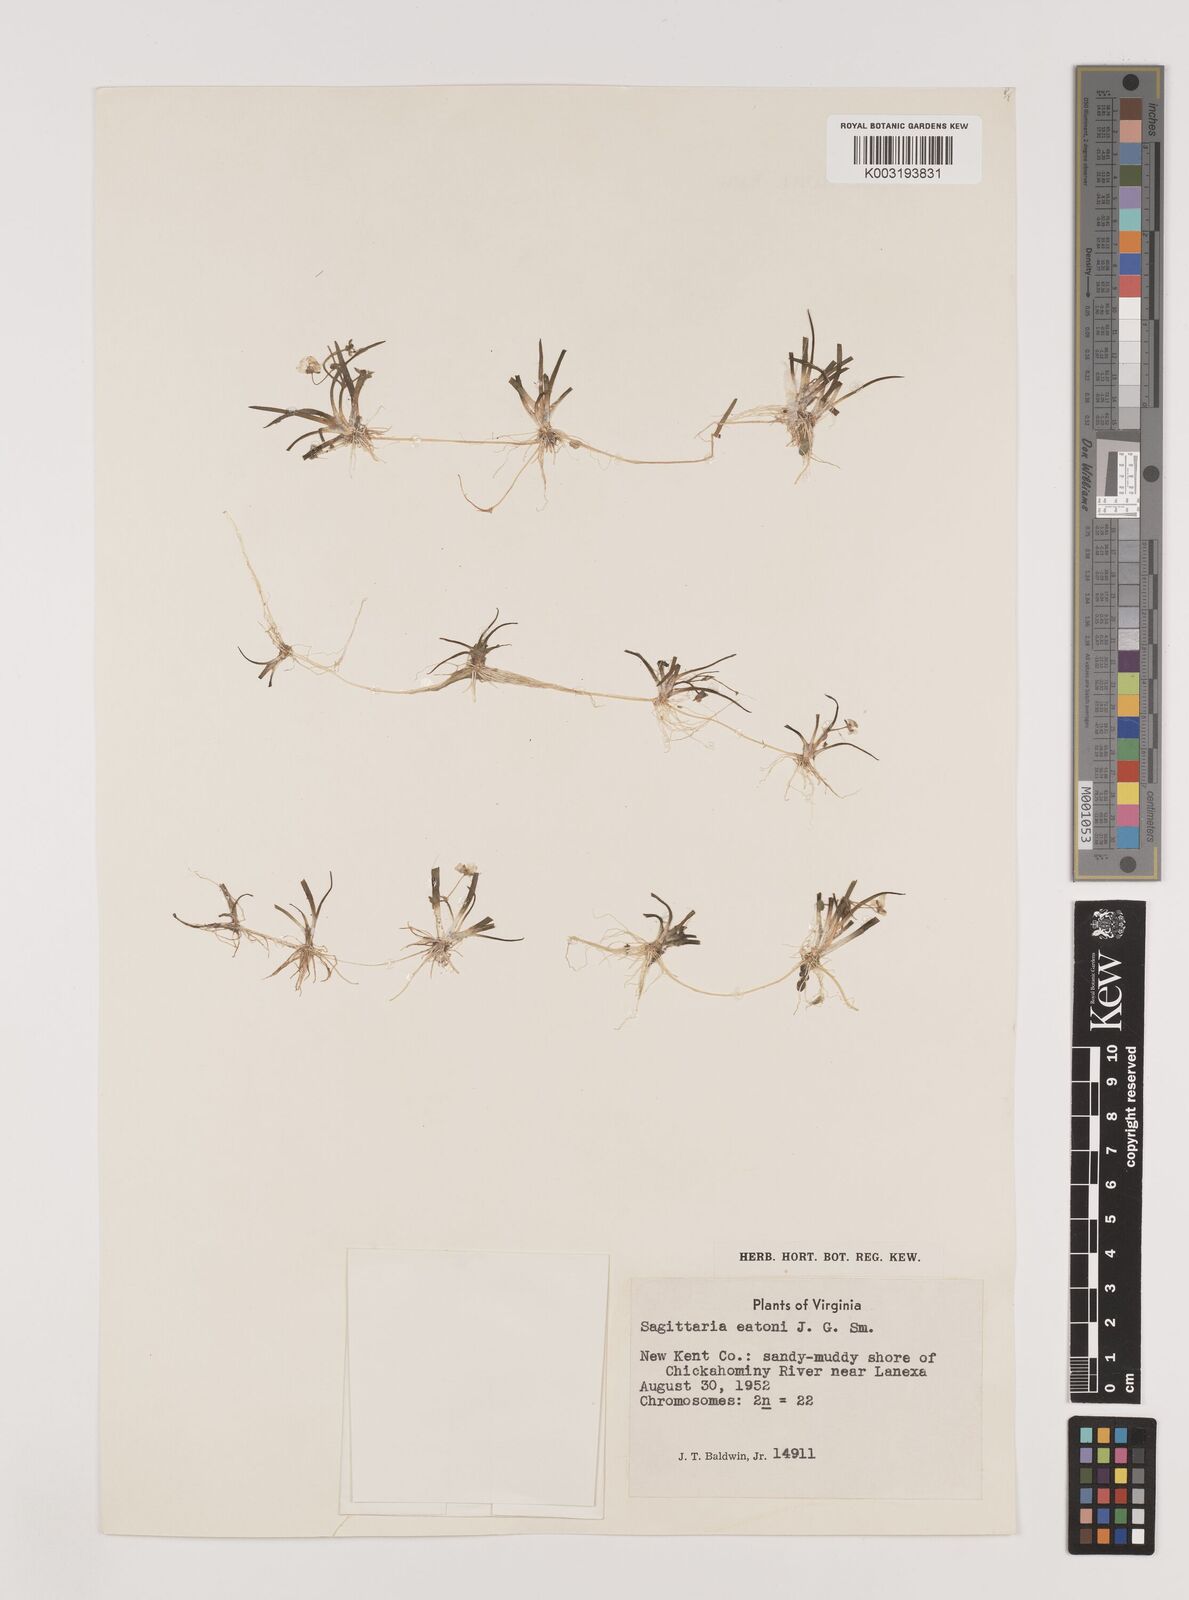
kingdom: Plantae
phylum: Tracheophyta
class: Liliopsida
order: Alismatales
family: Alismataceae
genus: Sagittaria
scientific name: Sagittaria graminea
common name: Grass-leaved arrowhead
